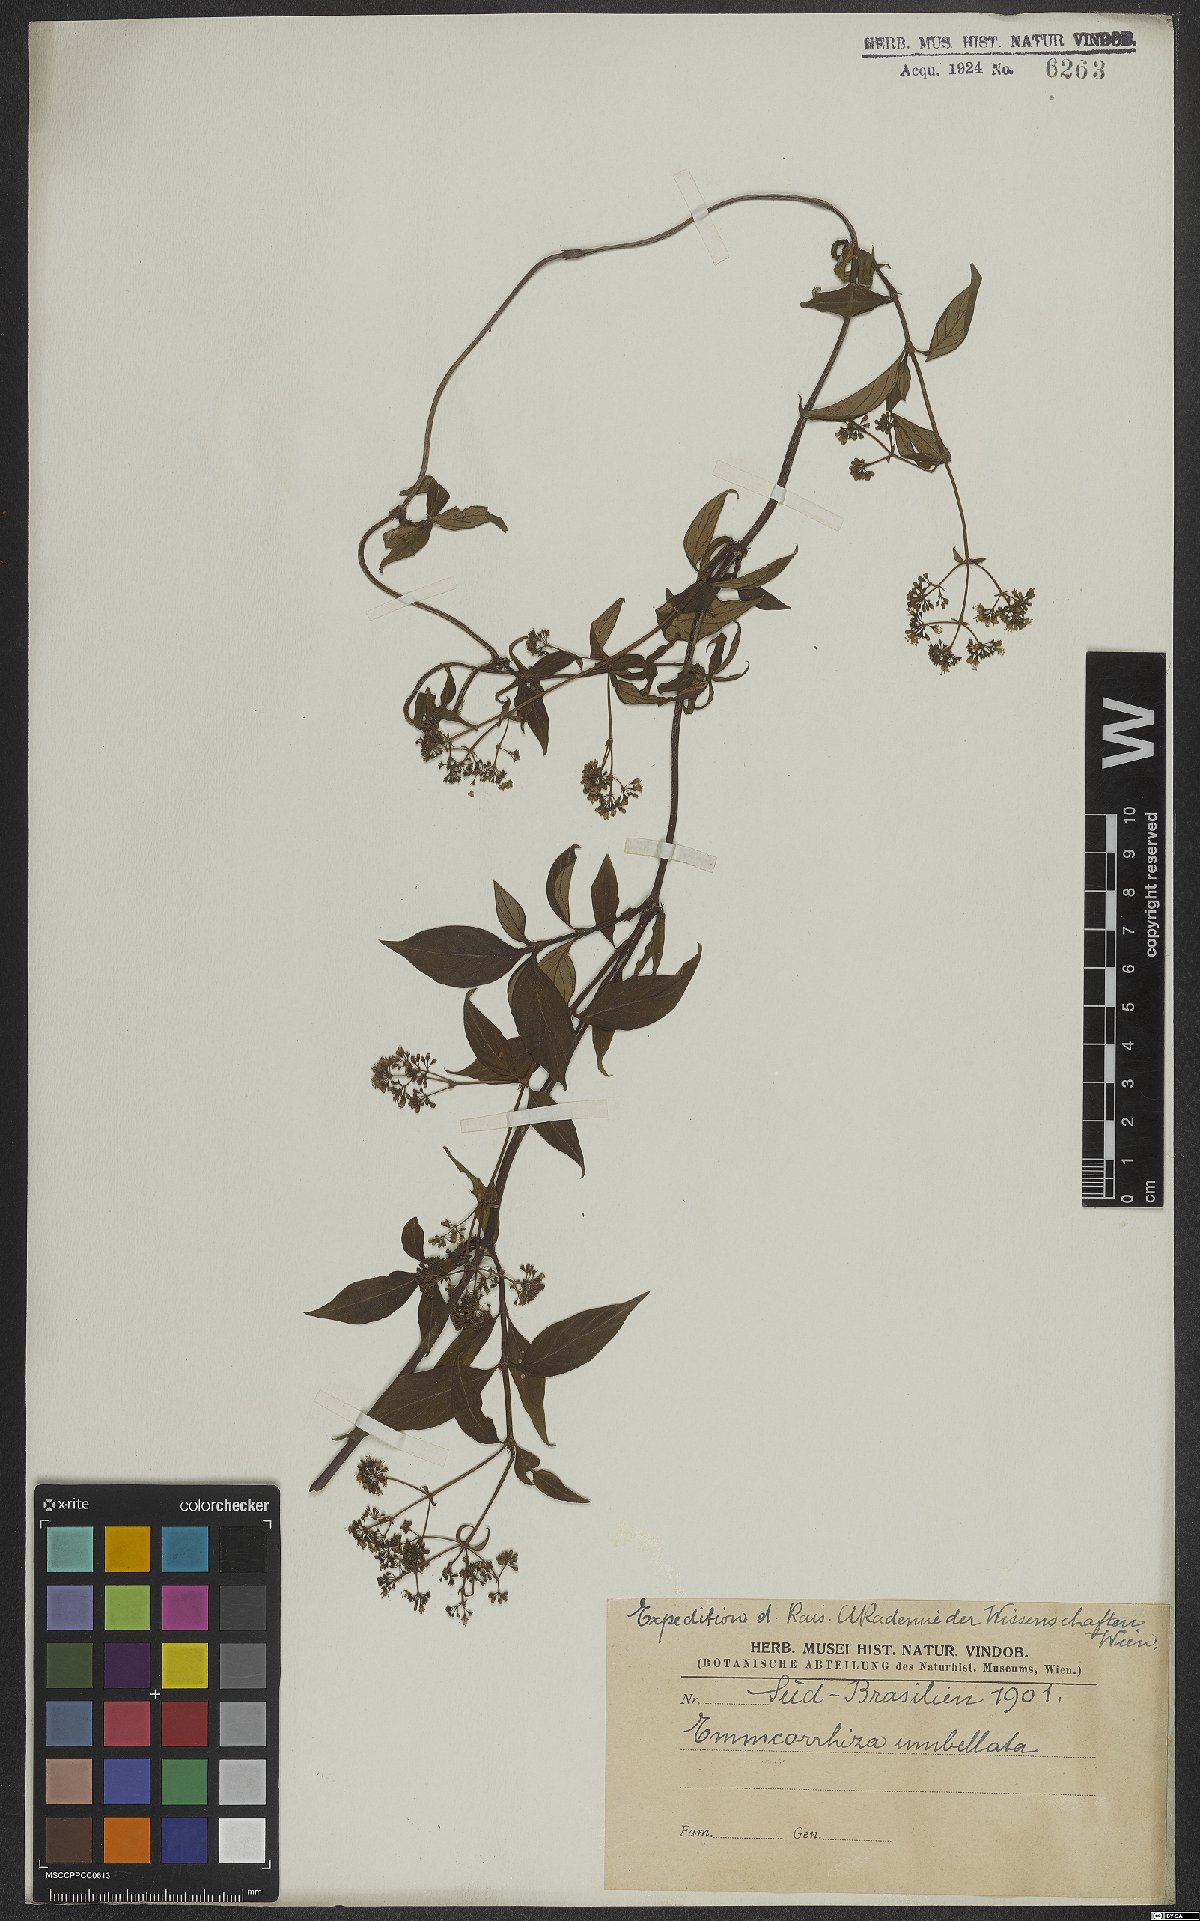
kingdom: Plantae
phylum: Tracheophyta
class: Magnoliopsida
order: Gentianales
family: Rubiaceae
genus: Emmeorhiza
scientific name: Emmeorhiza umbellata
